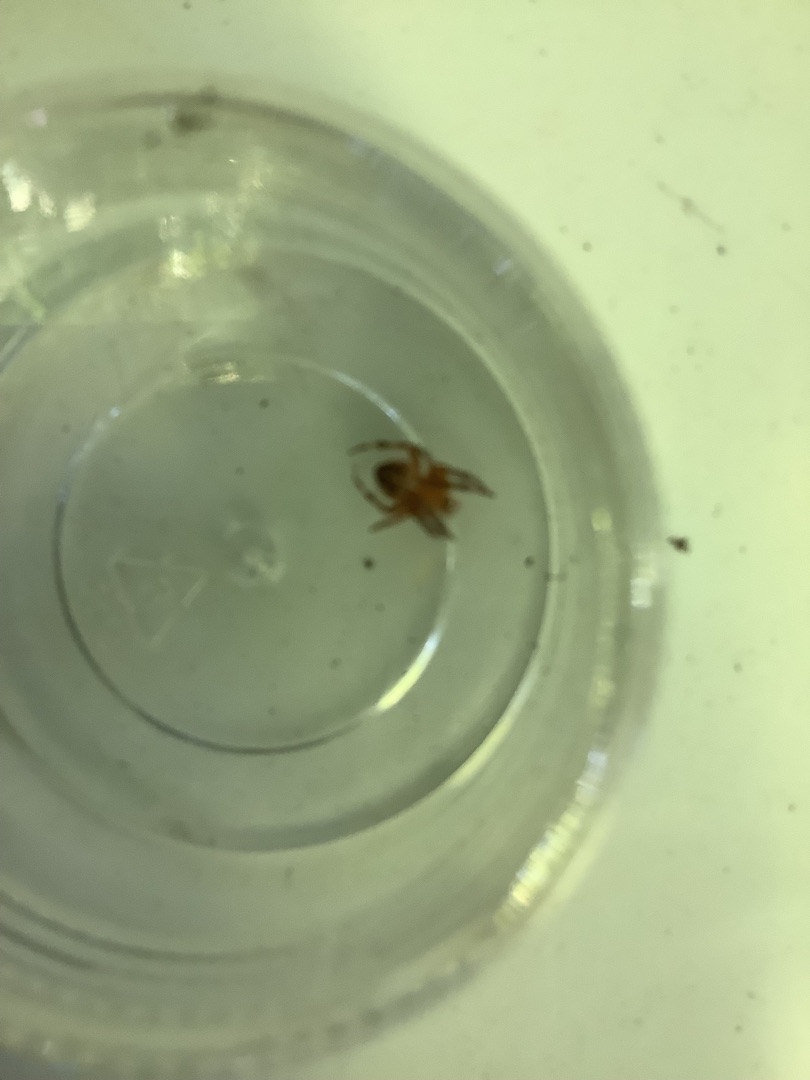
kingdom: Animalia
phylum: Arthropoda
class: Arachnida
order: Araneae
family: Araneidae
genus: Araneus
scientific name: Araneus diadematus
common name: Korsedderkop
